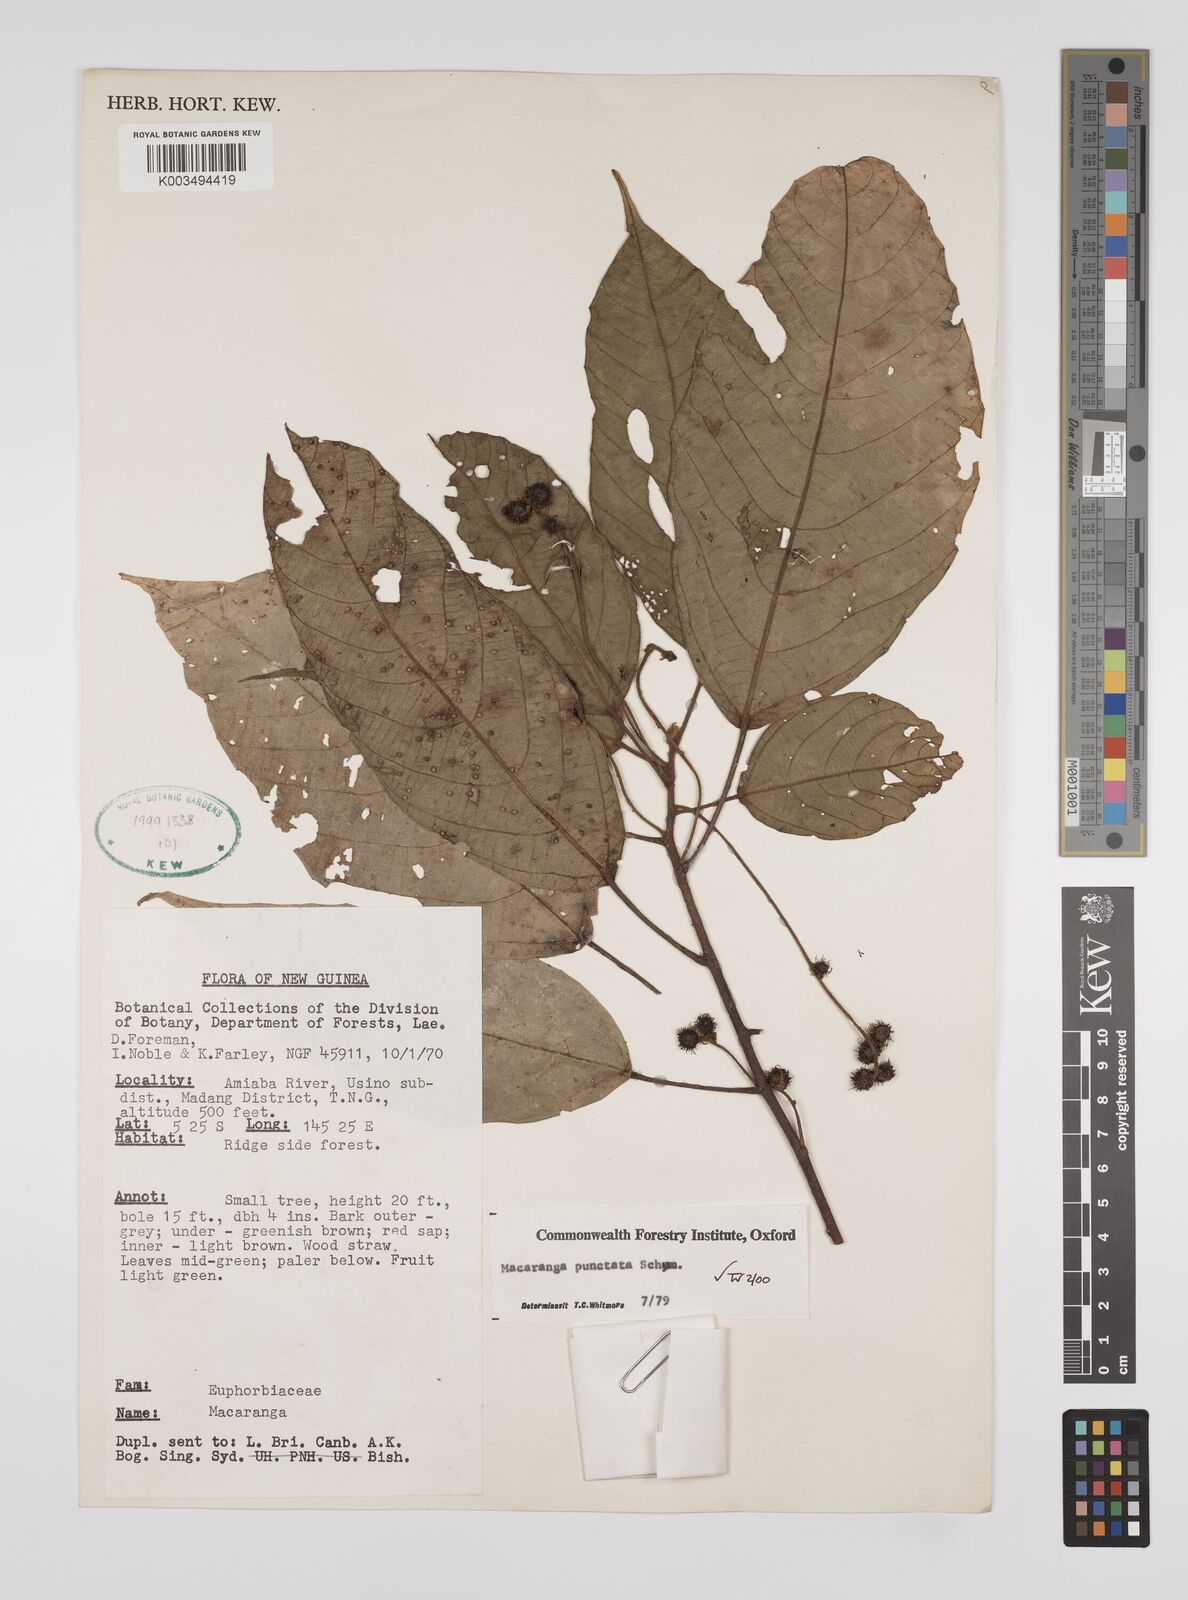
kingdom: Plantae
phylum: Tracheophyta
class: Magnoliopsida
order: Malpighiales
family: Euphorbiaceae
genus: Macaranga
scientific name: Macaranga punctata
